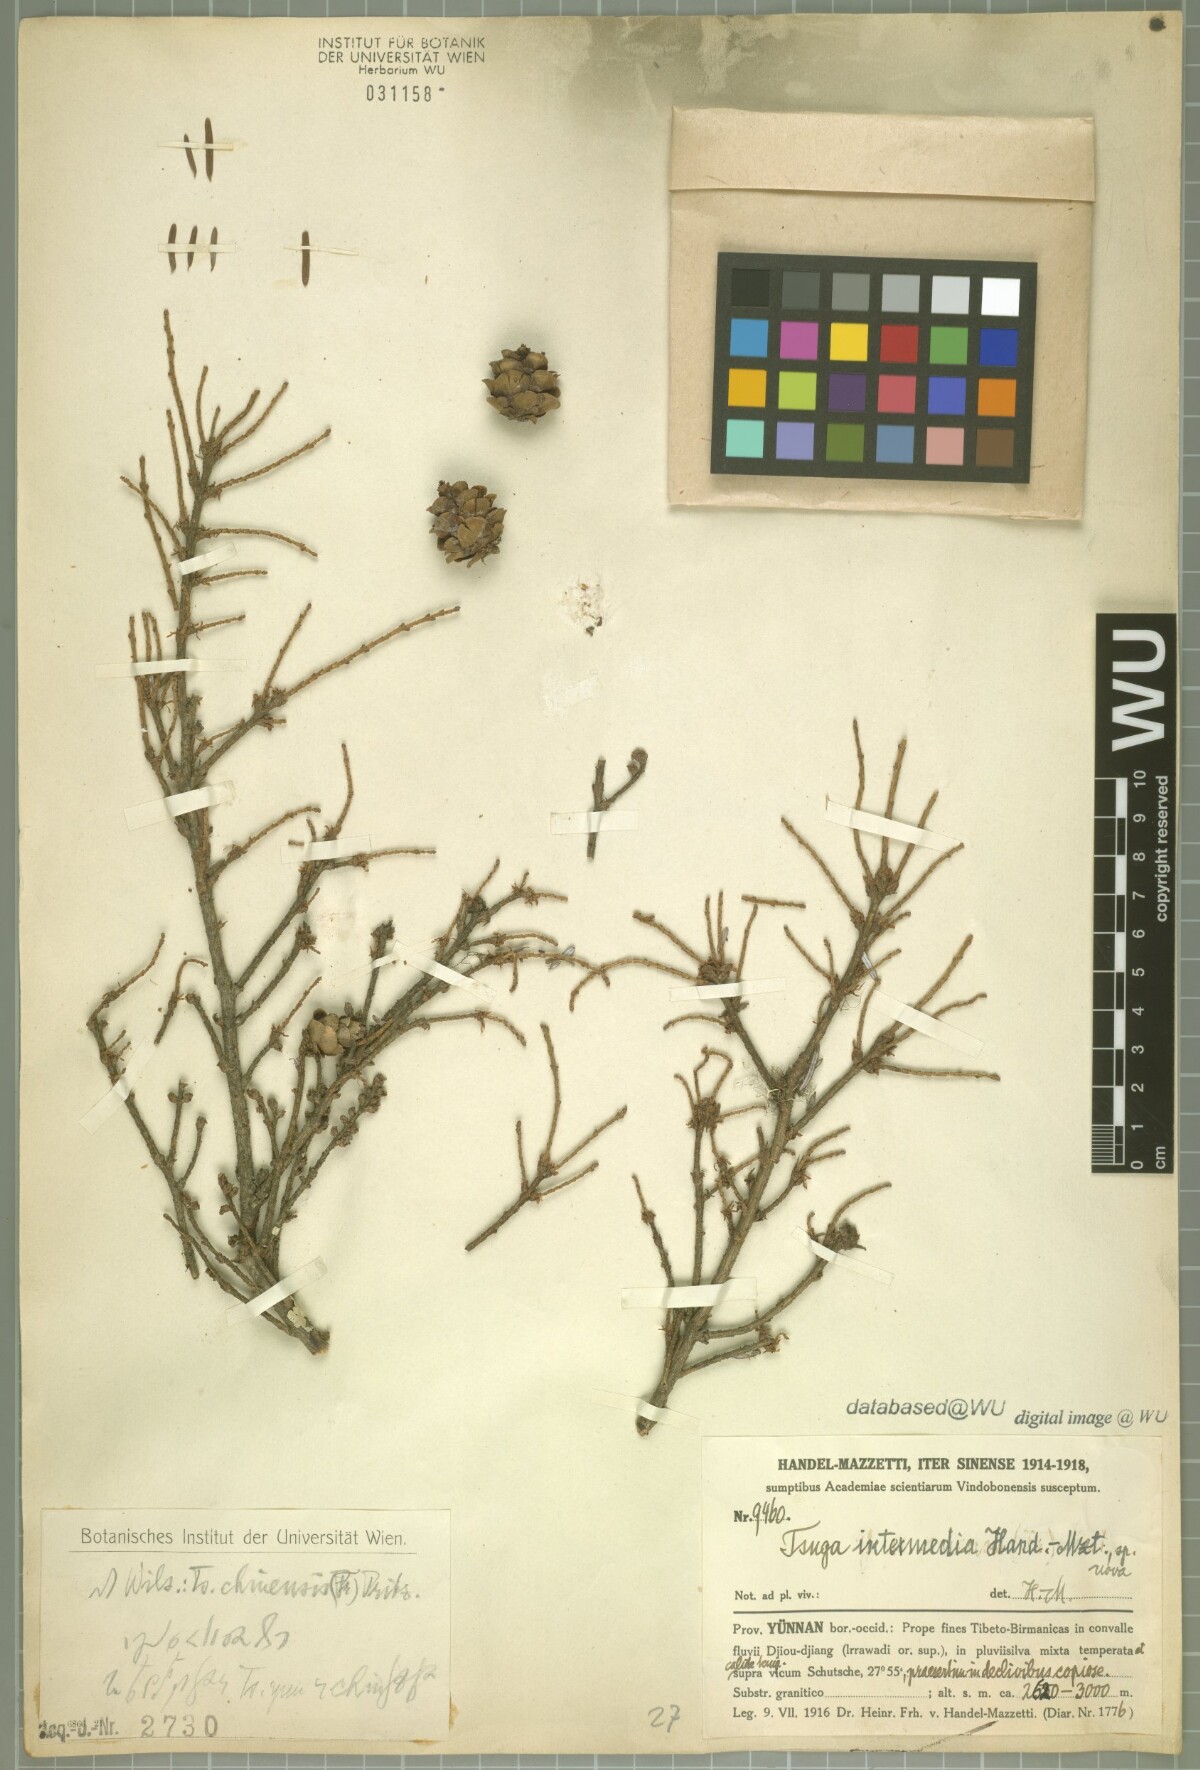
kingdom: Plantae
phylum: Tracheophyta
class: Pinopsida
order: Pinales
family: Pinaceae
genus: Tsuga
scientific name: Tsuga dumosa
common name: Himalayan hemlock
